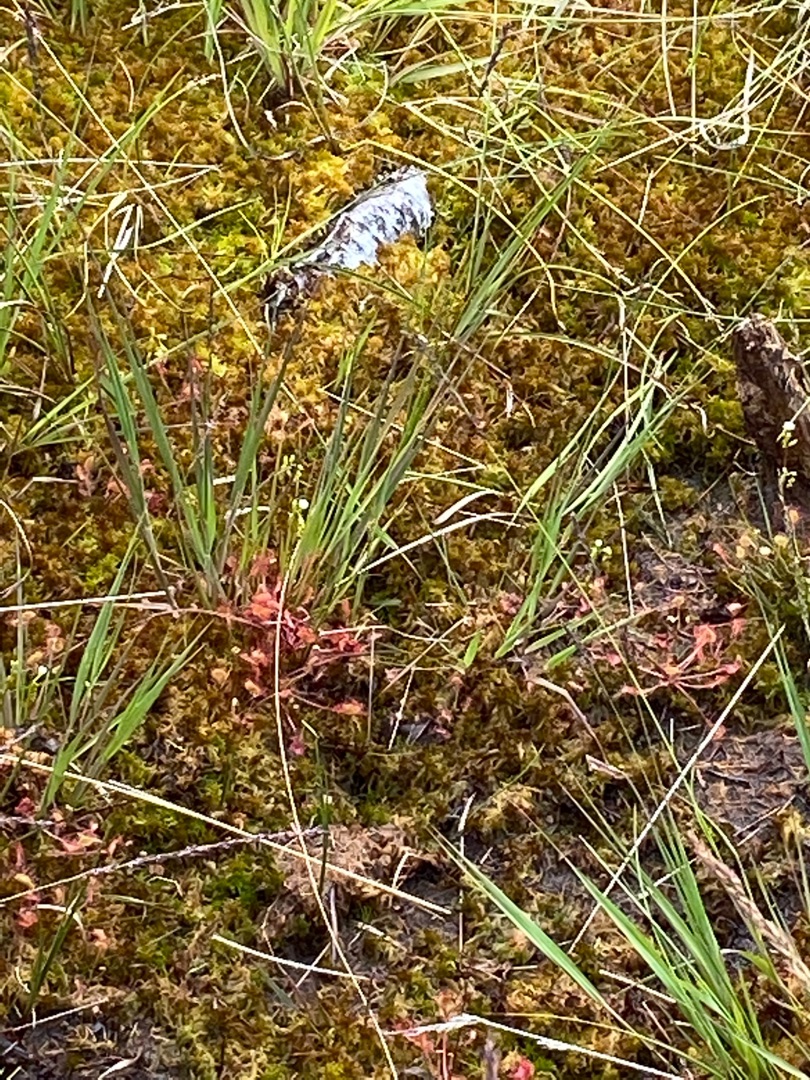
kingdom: Plantae
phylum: Tracheophyta
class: Magnoliopsida
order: Caryophyllales
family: Droseraceae
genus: Drosera
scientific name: Drosera rotundifolia
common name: Rundbladet soldug
